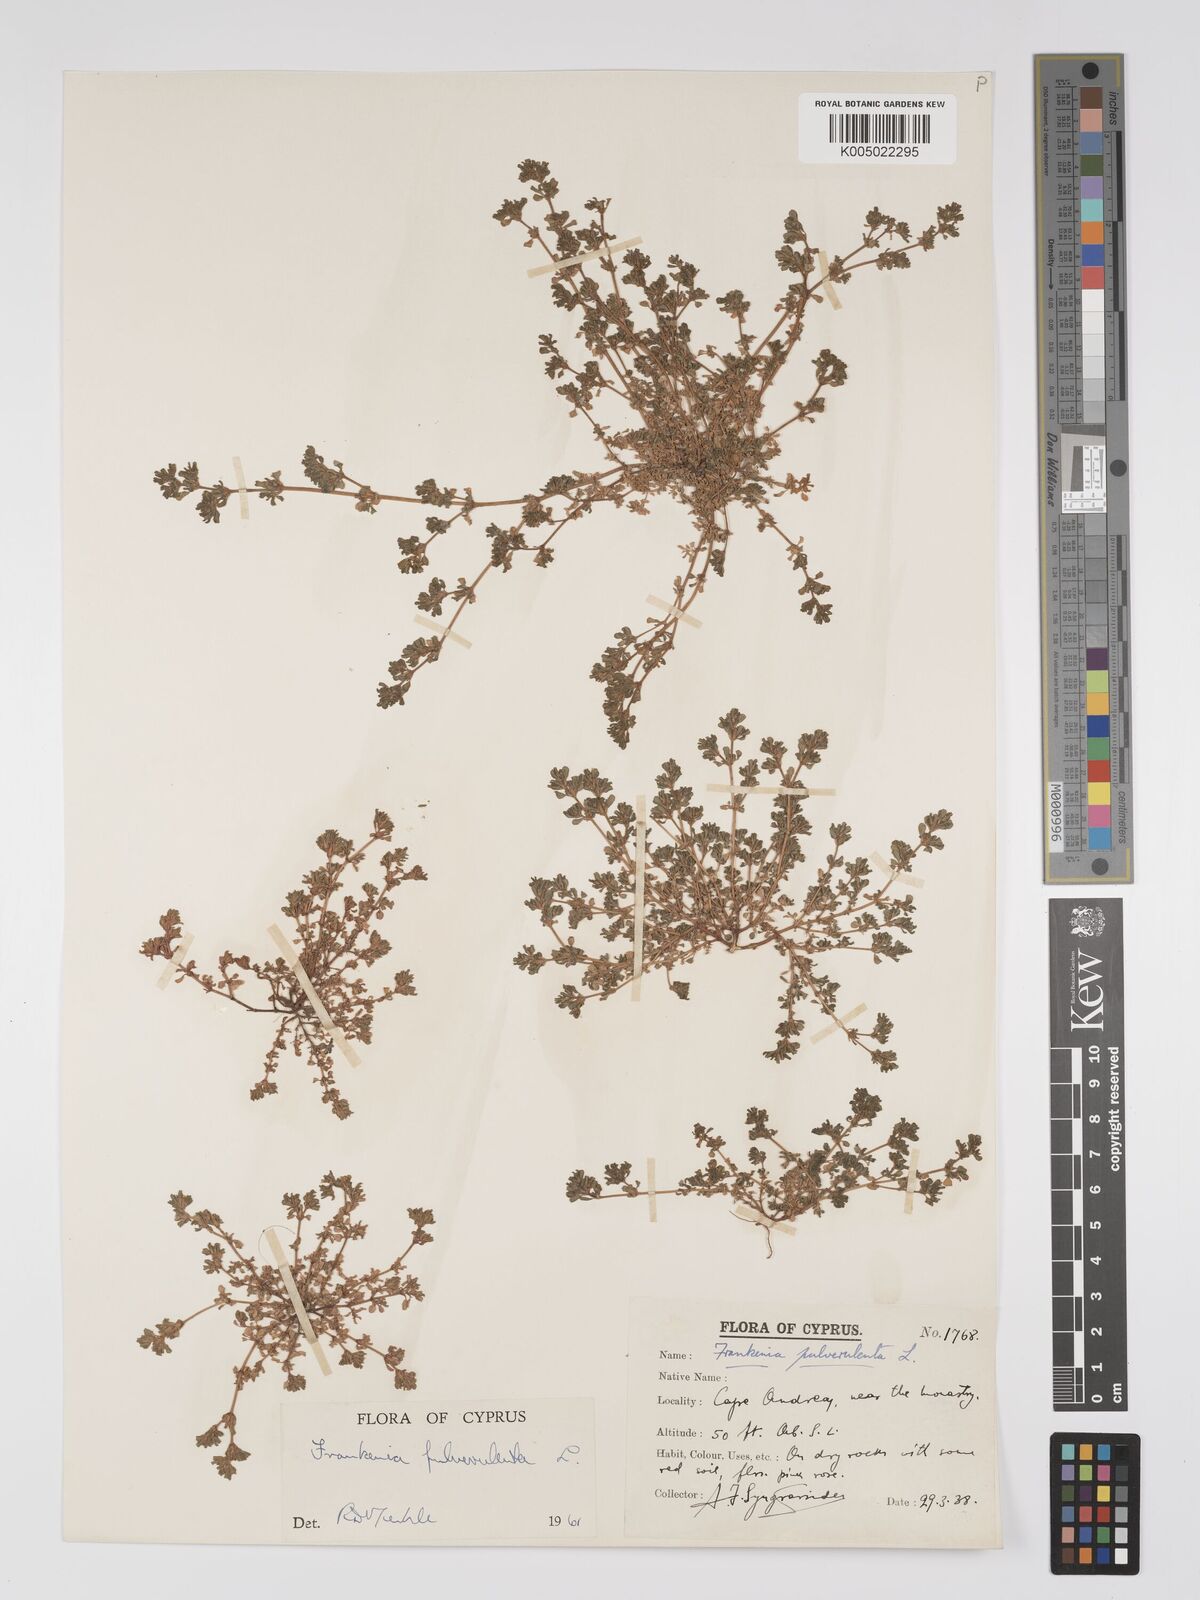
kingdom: Plantae
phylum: Tracheophyta
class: Magnoliopsida
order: Caryophyllales
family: Frankeniaceae
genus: Frankenia
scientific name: Frankenia pulverulenta
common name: European seaheath
